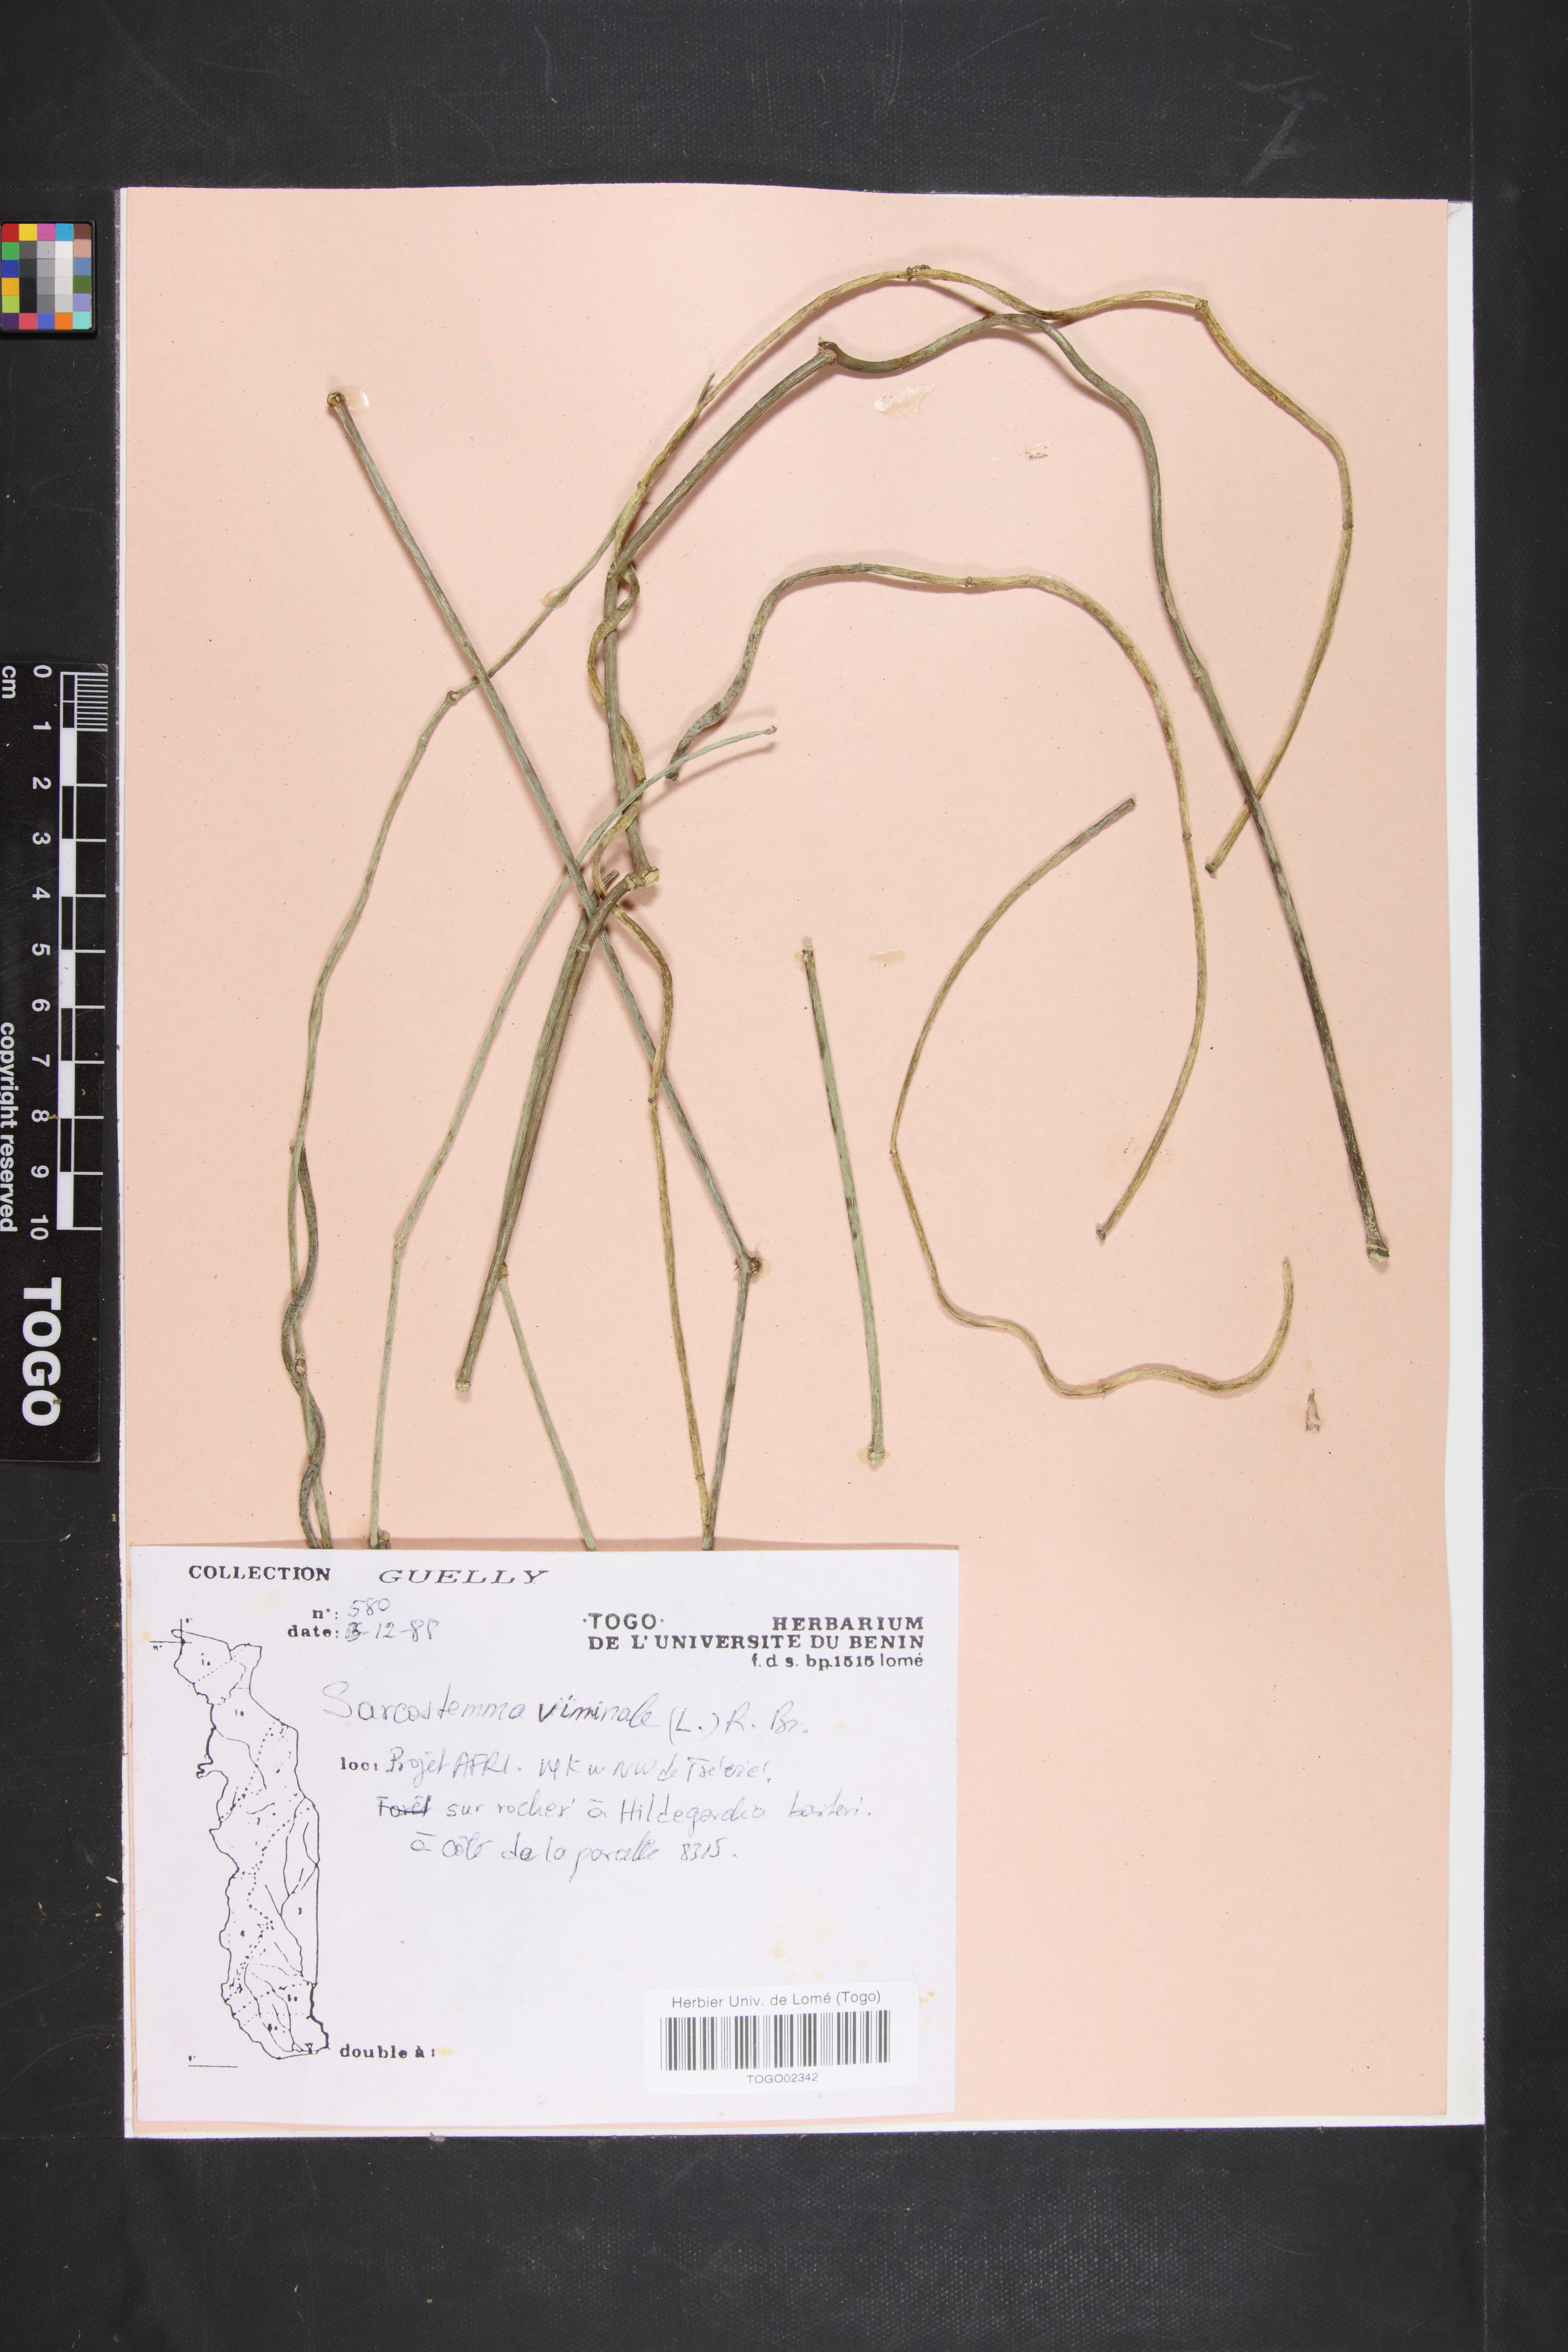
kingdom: Plantae
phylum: Tracheophyta
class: Magnoliopsida
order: Gentianales
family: Apocynaceae
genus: Cynanchum
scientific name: Cynanchum viminale
